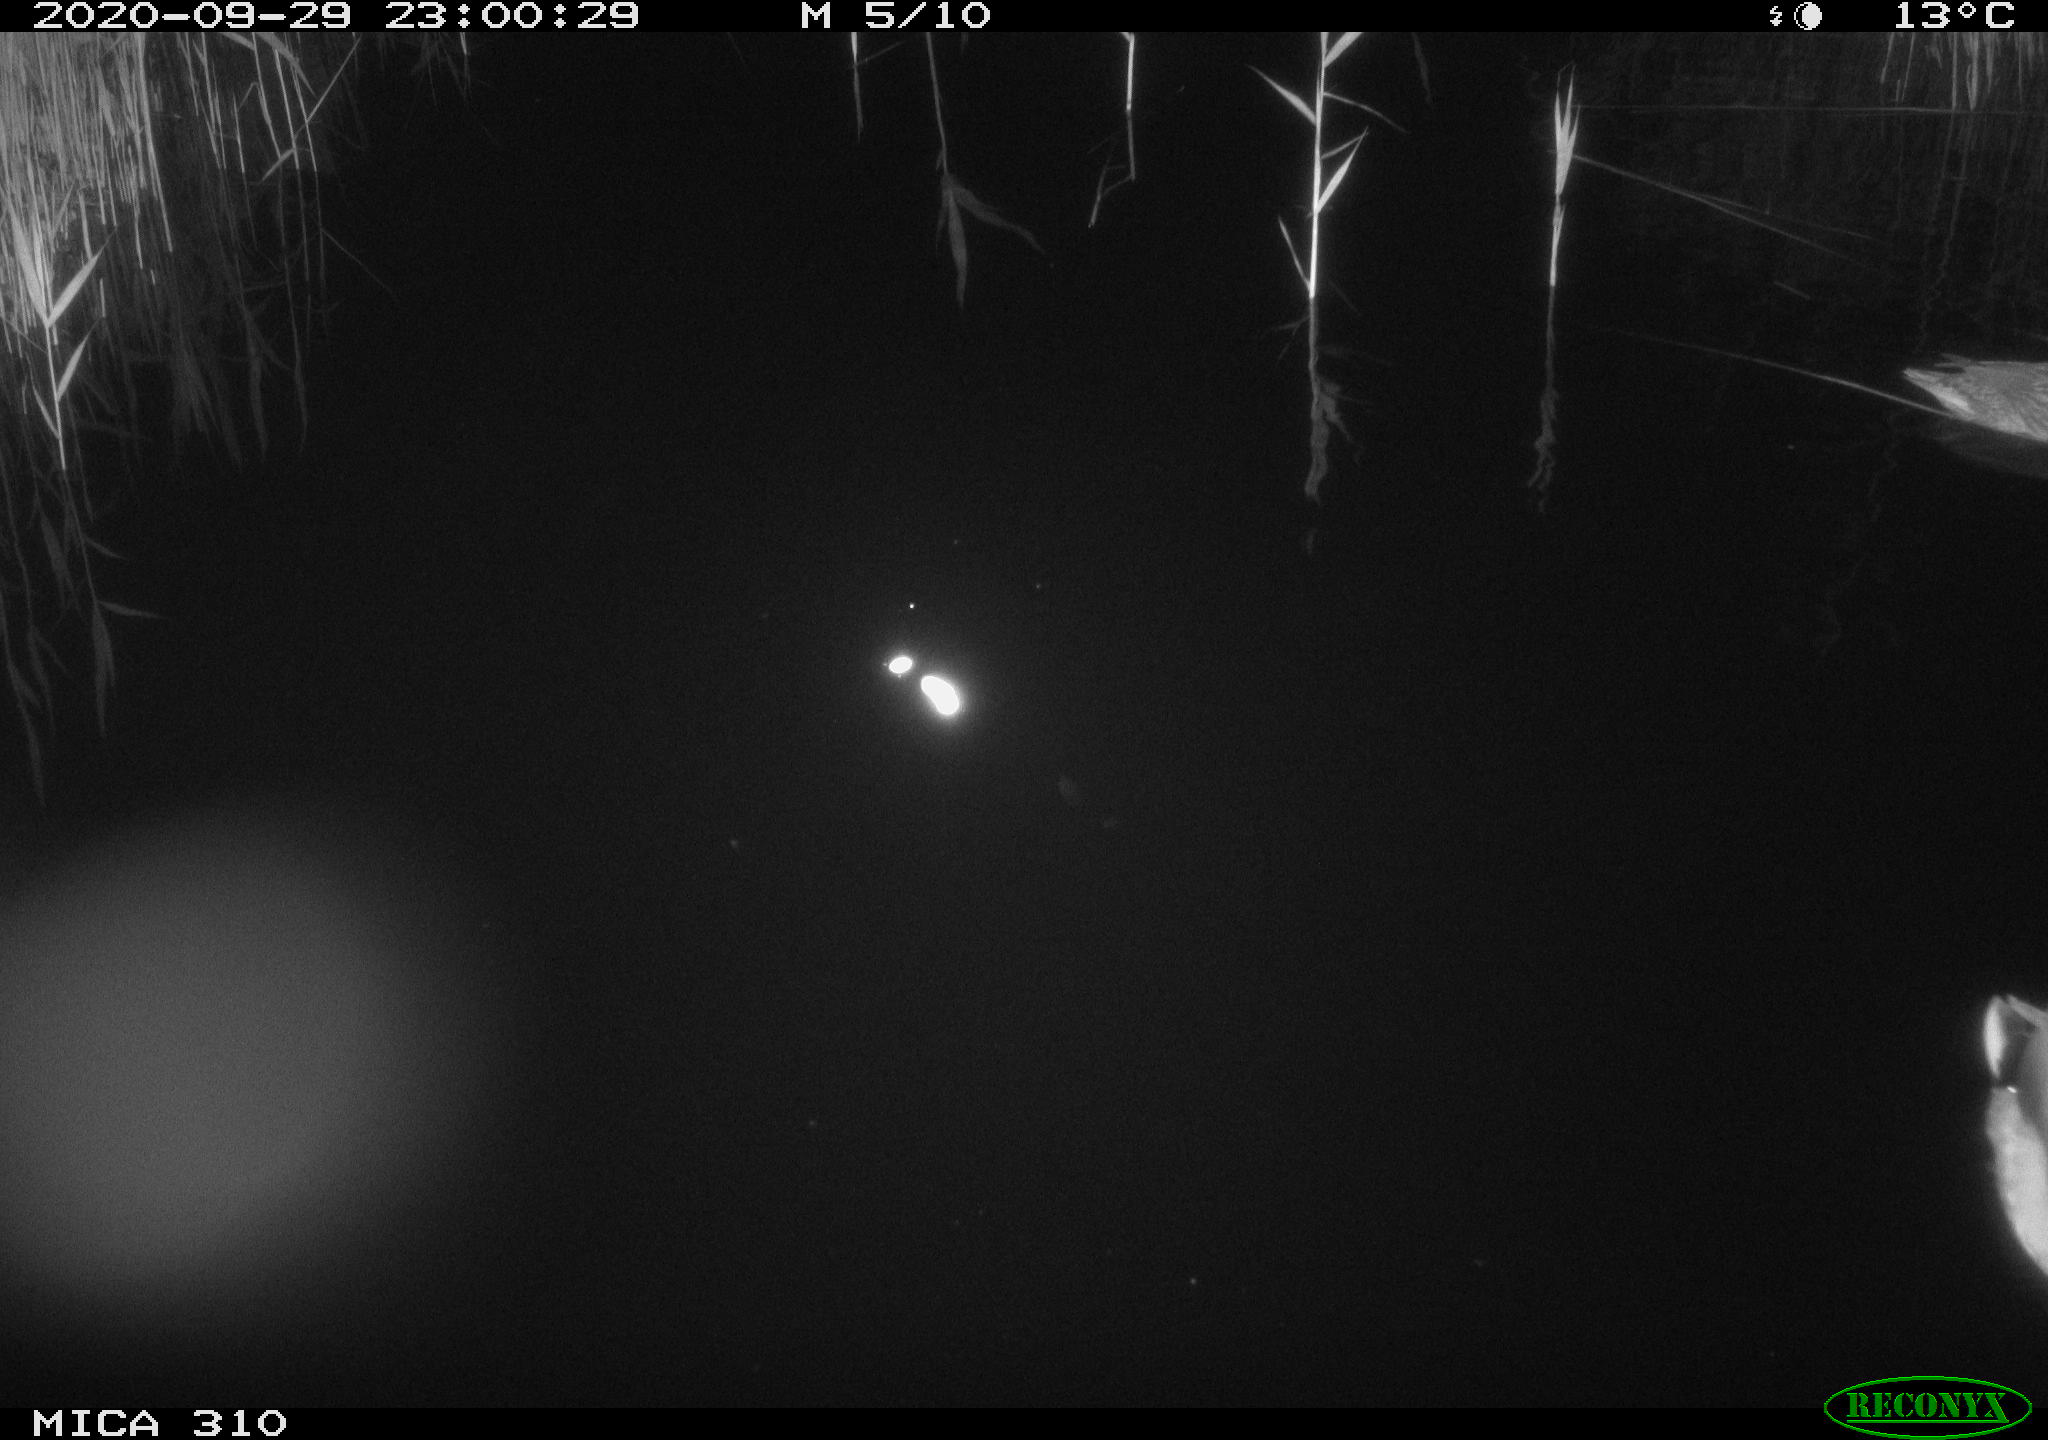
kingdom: Animalia
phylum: Chordata
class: Aves
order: Anseriformes
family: Anatidae
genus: Anas
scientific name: Anas platyrhynchos
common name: Mallard
